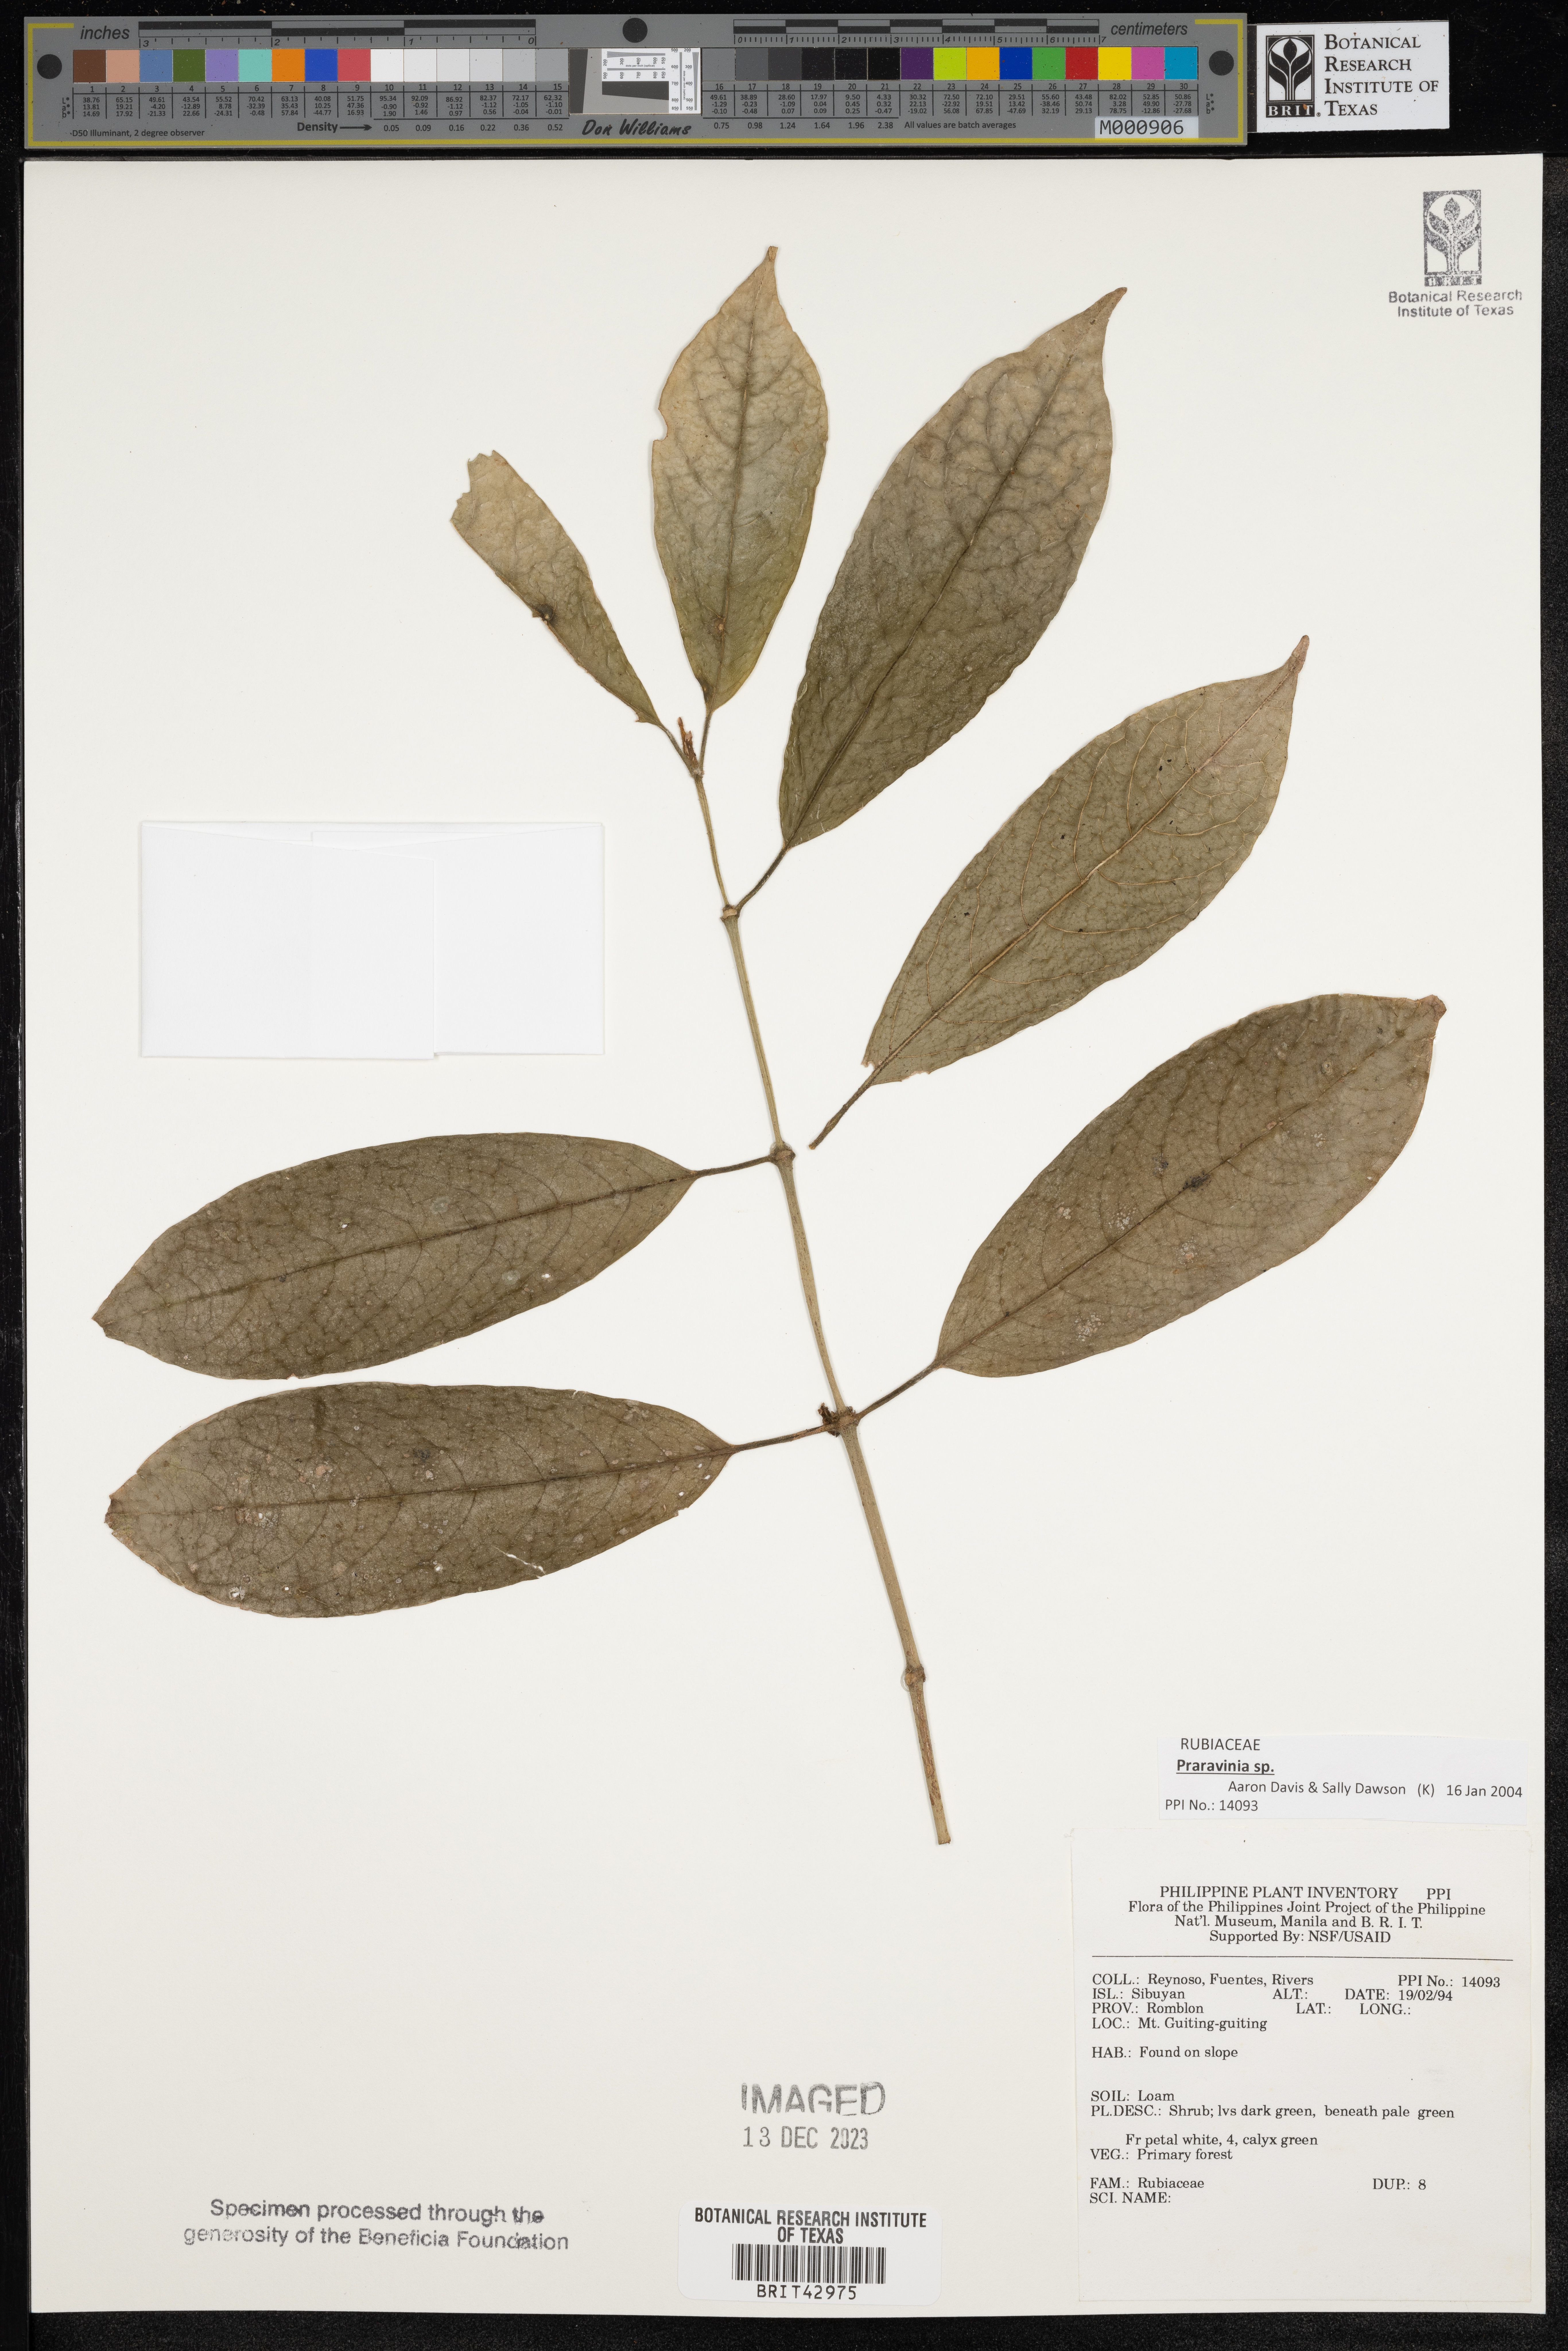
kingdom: Plantae
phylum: Tracheophyta
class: Magnoliopsida
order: Gentianales
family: Rubiaceae
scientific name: Rubiaceae
